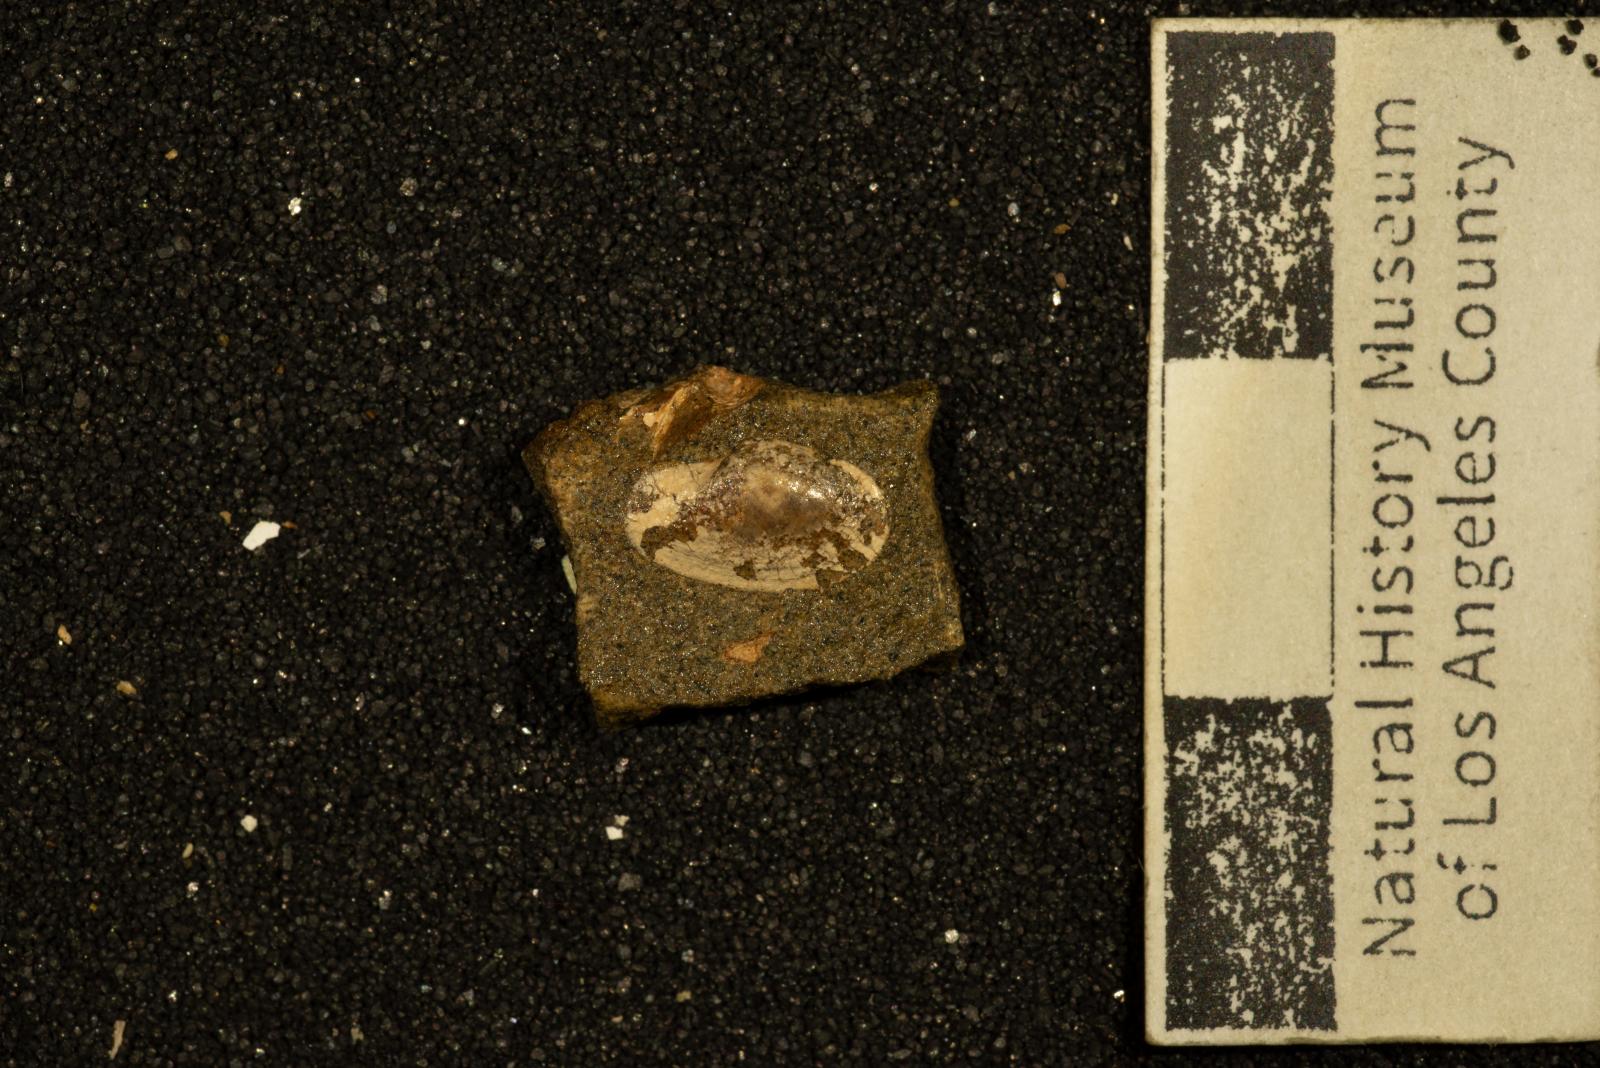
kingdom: Animalia
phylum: Mollusca
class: Bivalvia
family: Laternulidae
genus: Periplomya
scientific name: Periplomya
